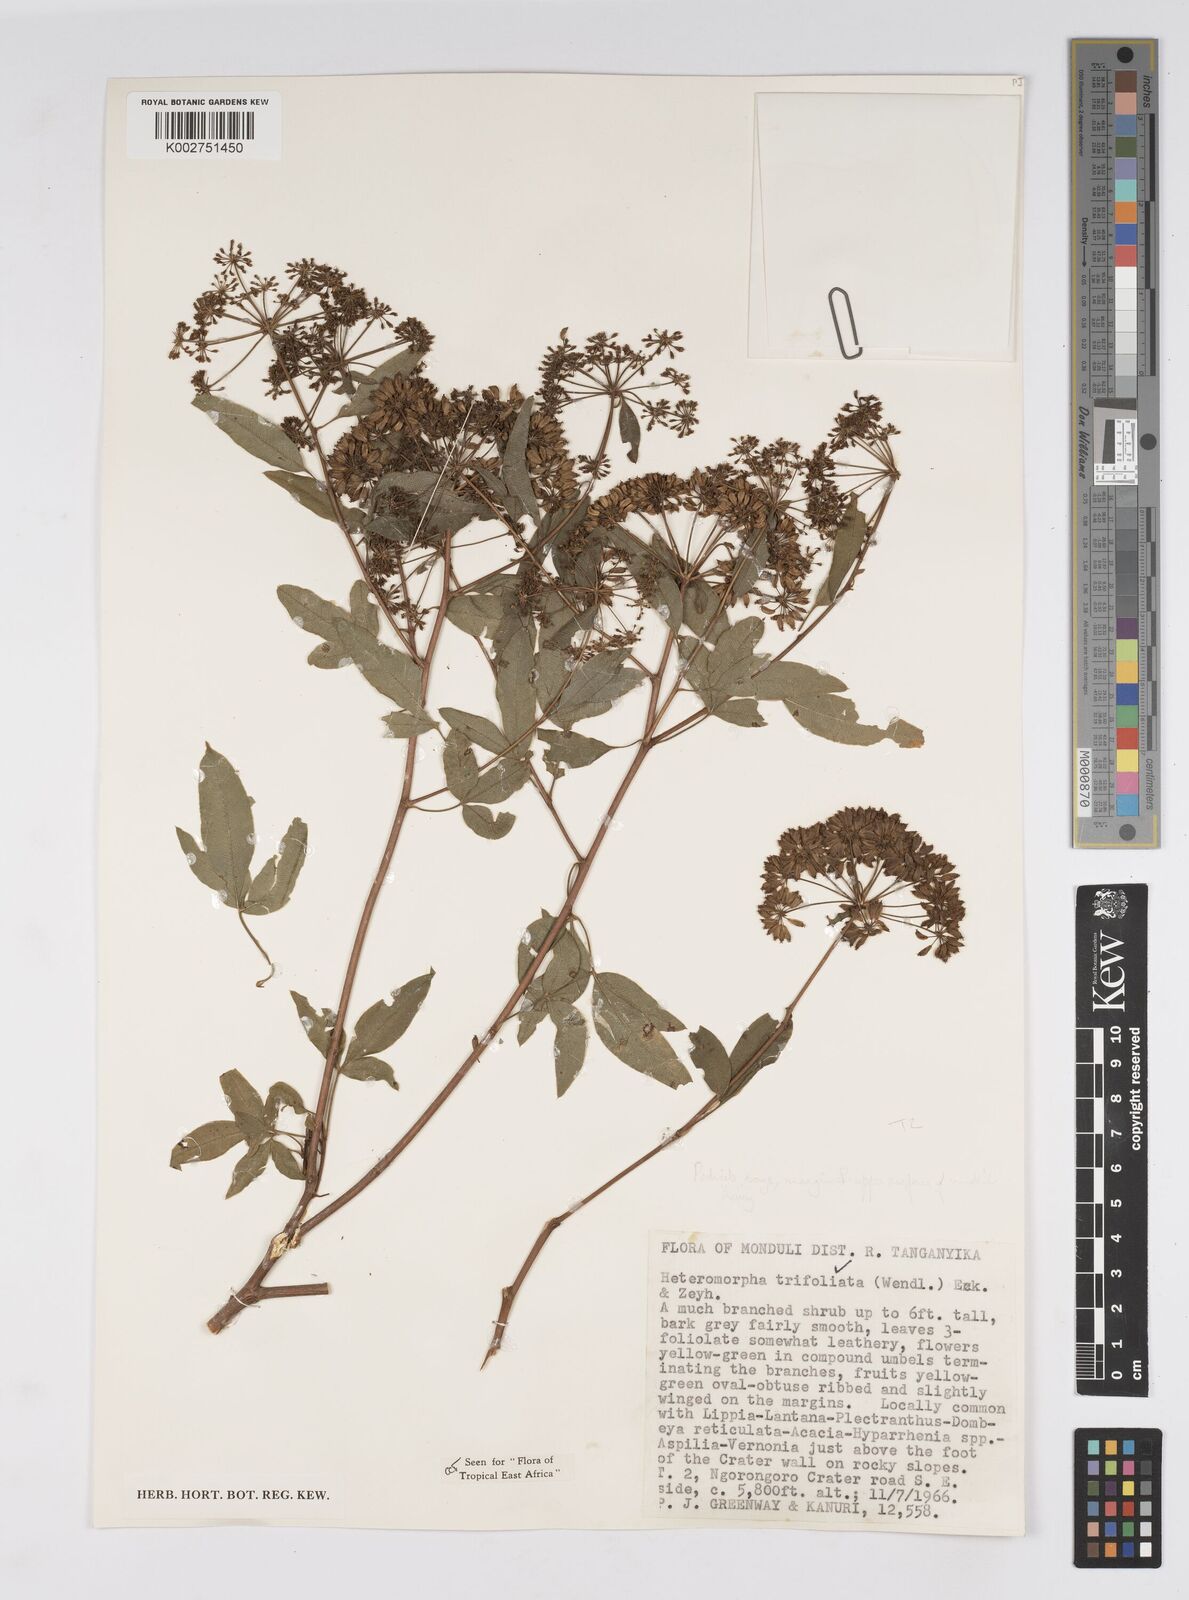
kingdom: Plantae
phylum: Tracheophyta
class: Magnoliopsida
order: Apiales
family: Apiaceae
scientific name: Apiaceae
